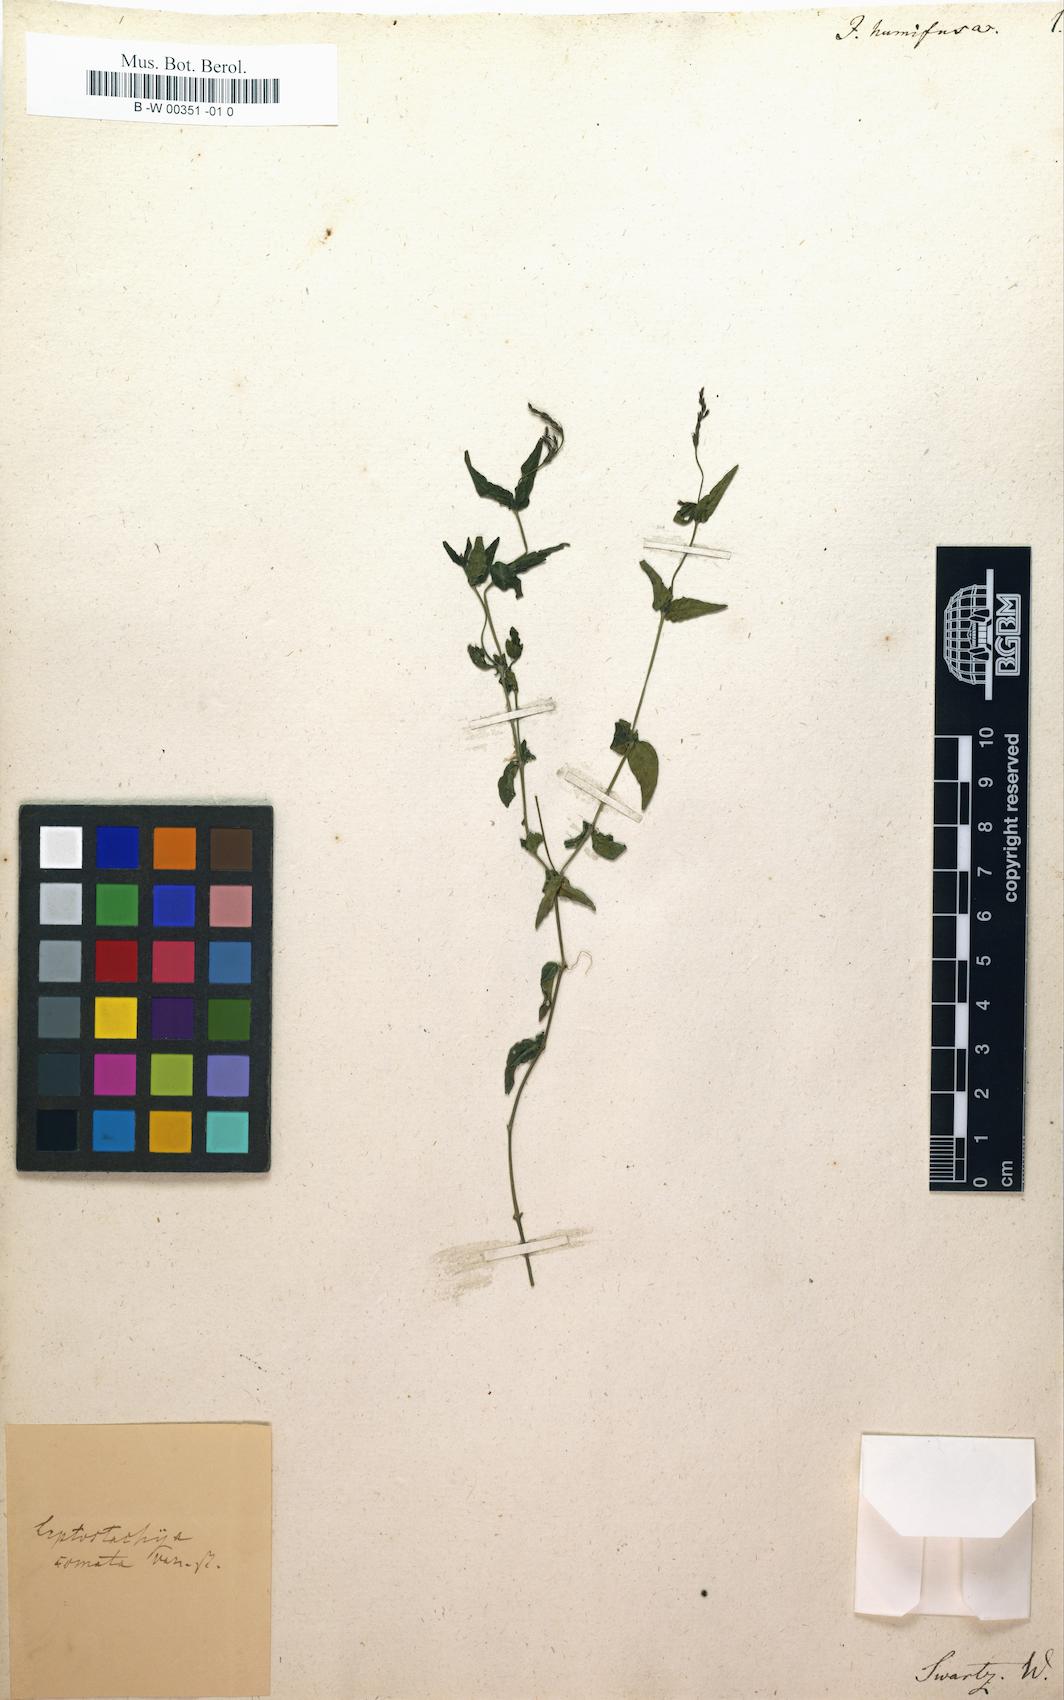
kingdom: Plantae
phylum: Tracheophyta
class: Magnoliopsida
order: Lamiales
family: Acanthaceae
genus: Dianthera
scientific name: Dianthera comata
